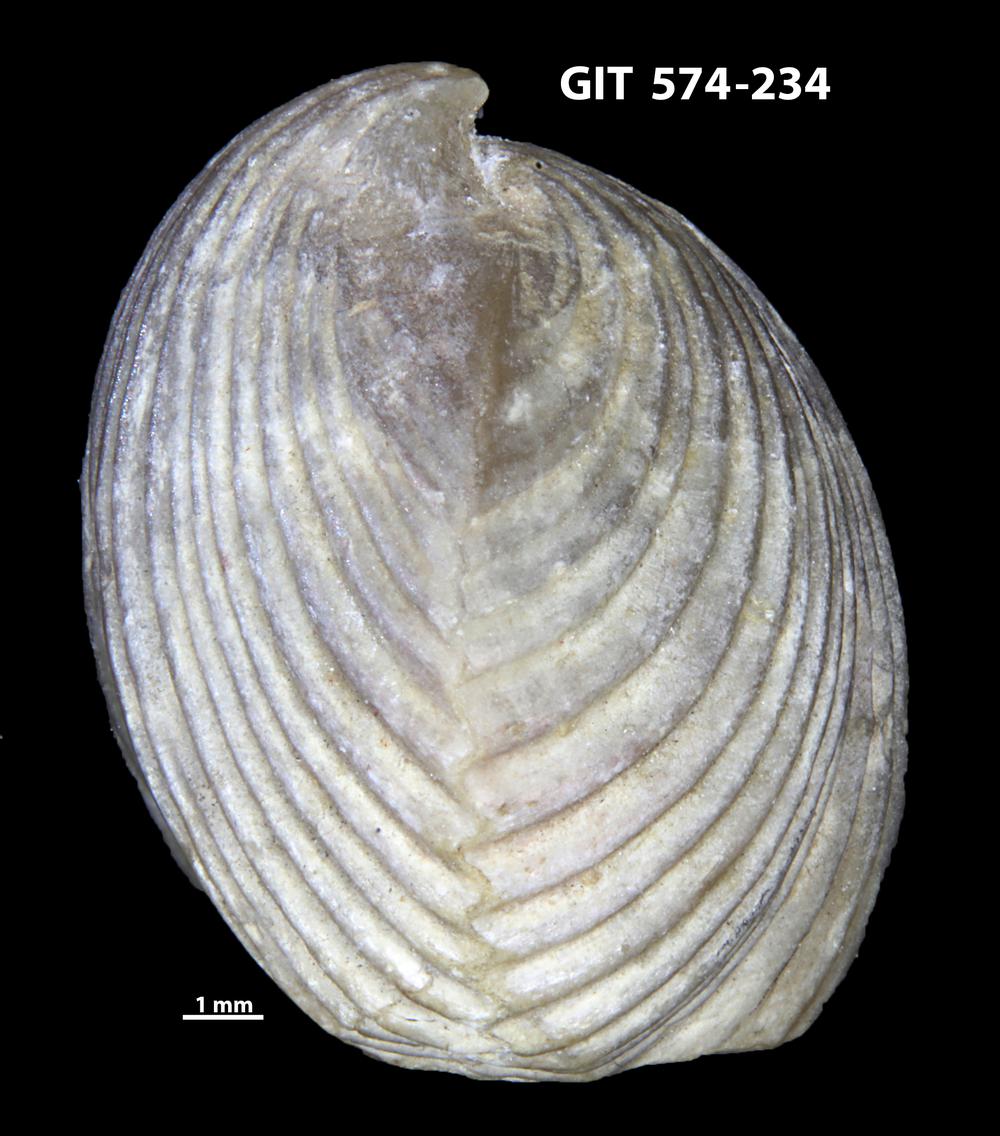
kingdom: Animalia
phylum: Brachiopoda
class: Rhynchonellata
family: Atrypinidae
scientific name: Atrypinidae
